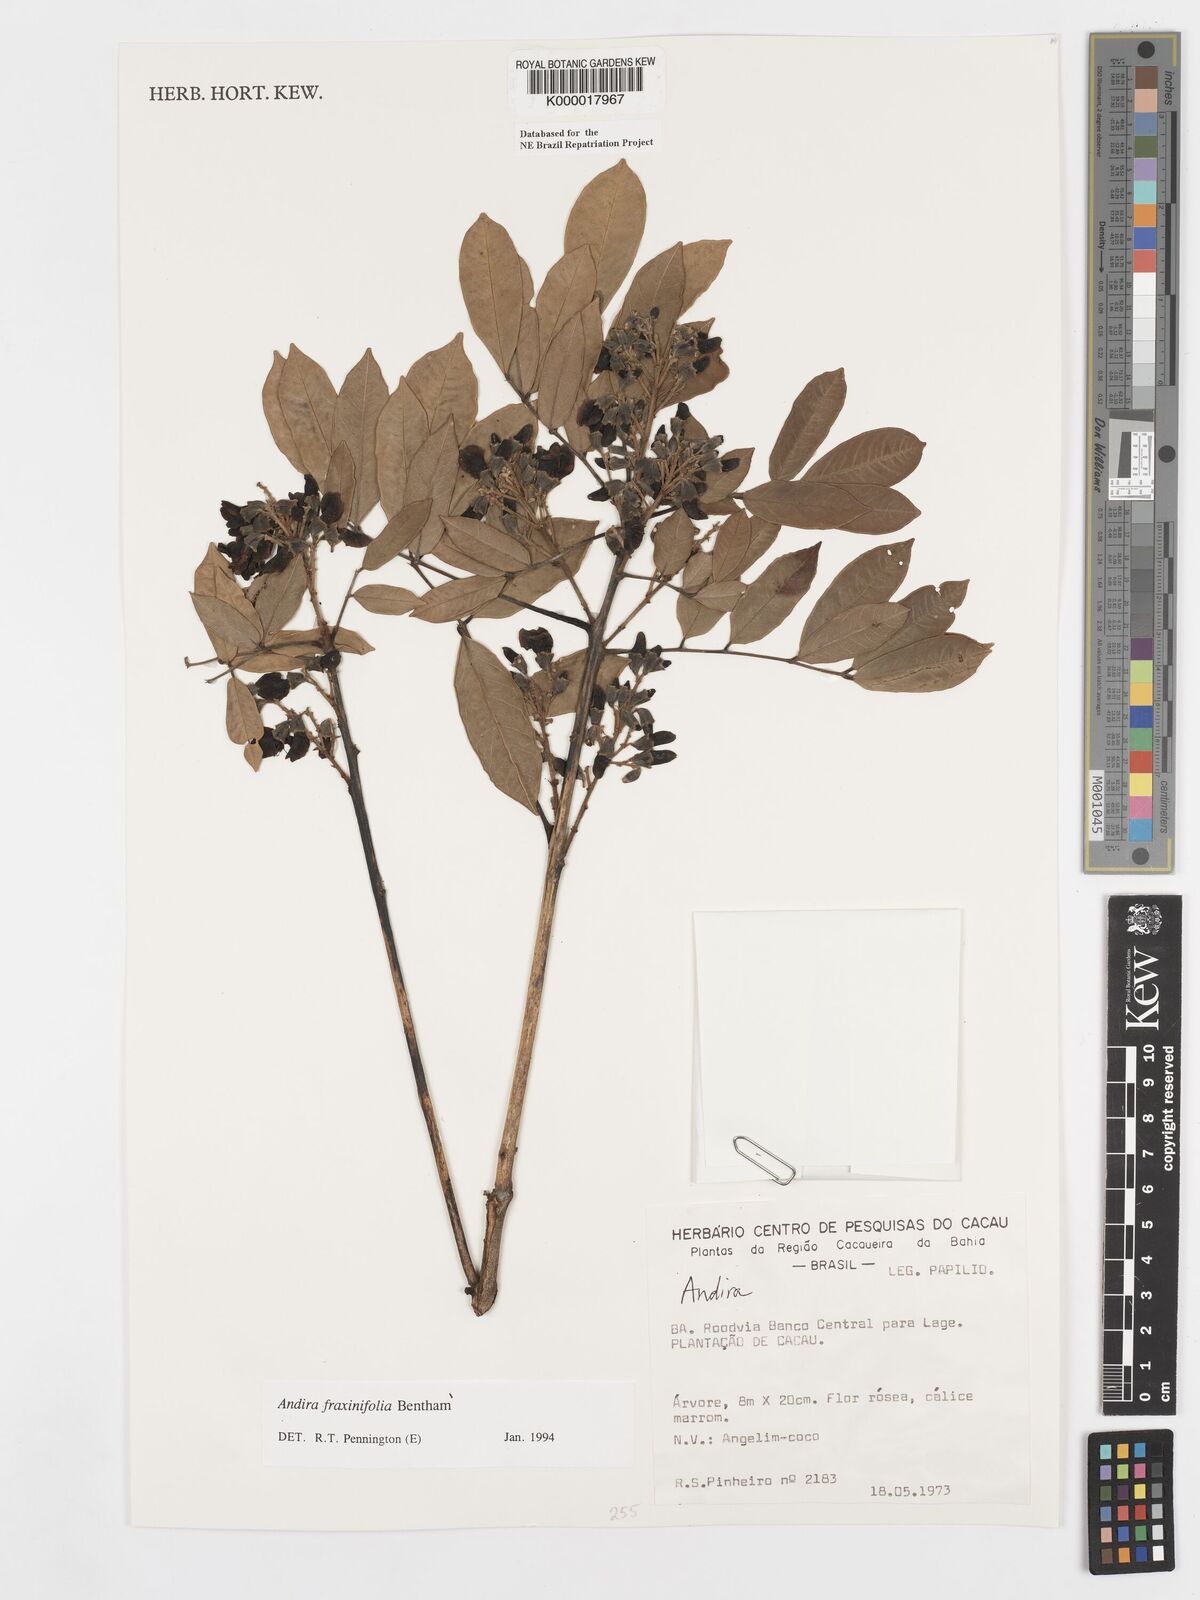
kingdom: Plantae
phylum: Tracheophyta
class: Magnoliopsida
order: Fabales
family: Fabaceae
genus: Andira
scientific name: Andira fraxinifolia
